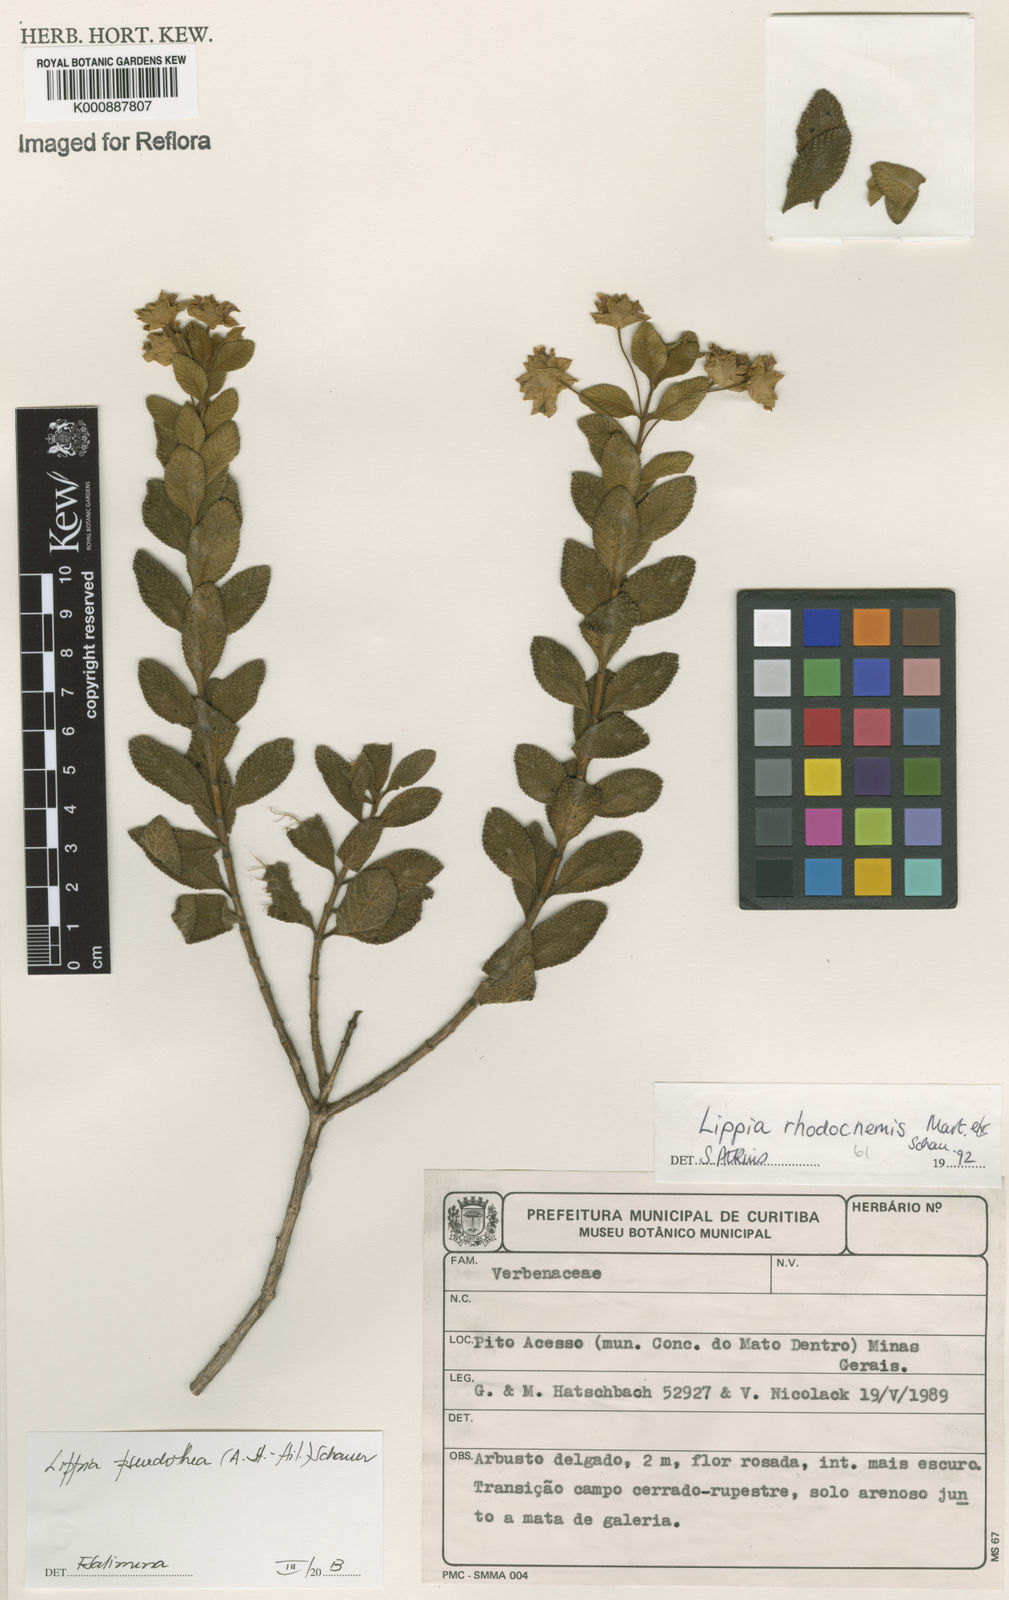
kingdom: Plantae
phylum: Tracheophyta
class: Magnoliopsida
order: Lamiales
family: Verbenaceae
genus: Lippia
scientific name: Lippia
